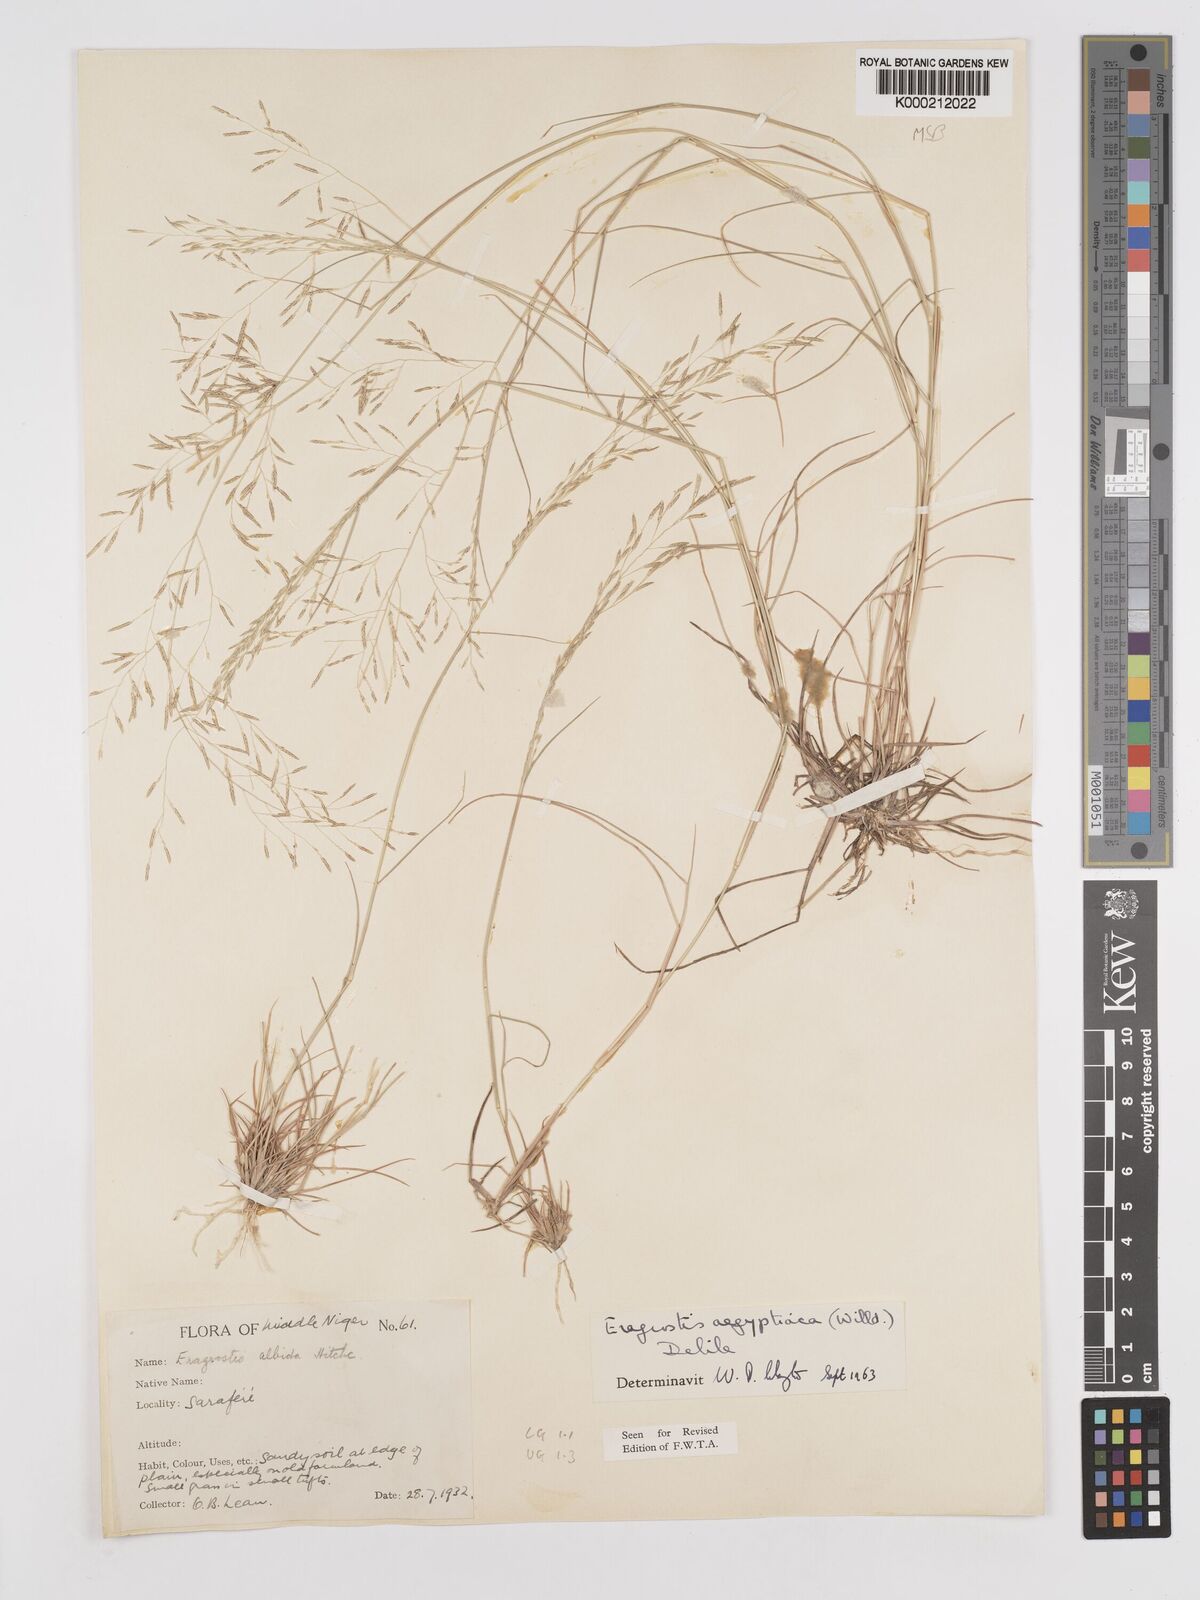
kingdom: Plantae
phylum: Tracheophyta
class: Liliopsida
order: Poales
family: Poaceae
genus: Eragrostis
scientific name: Eragrostis aegyptiaca
